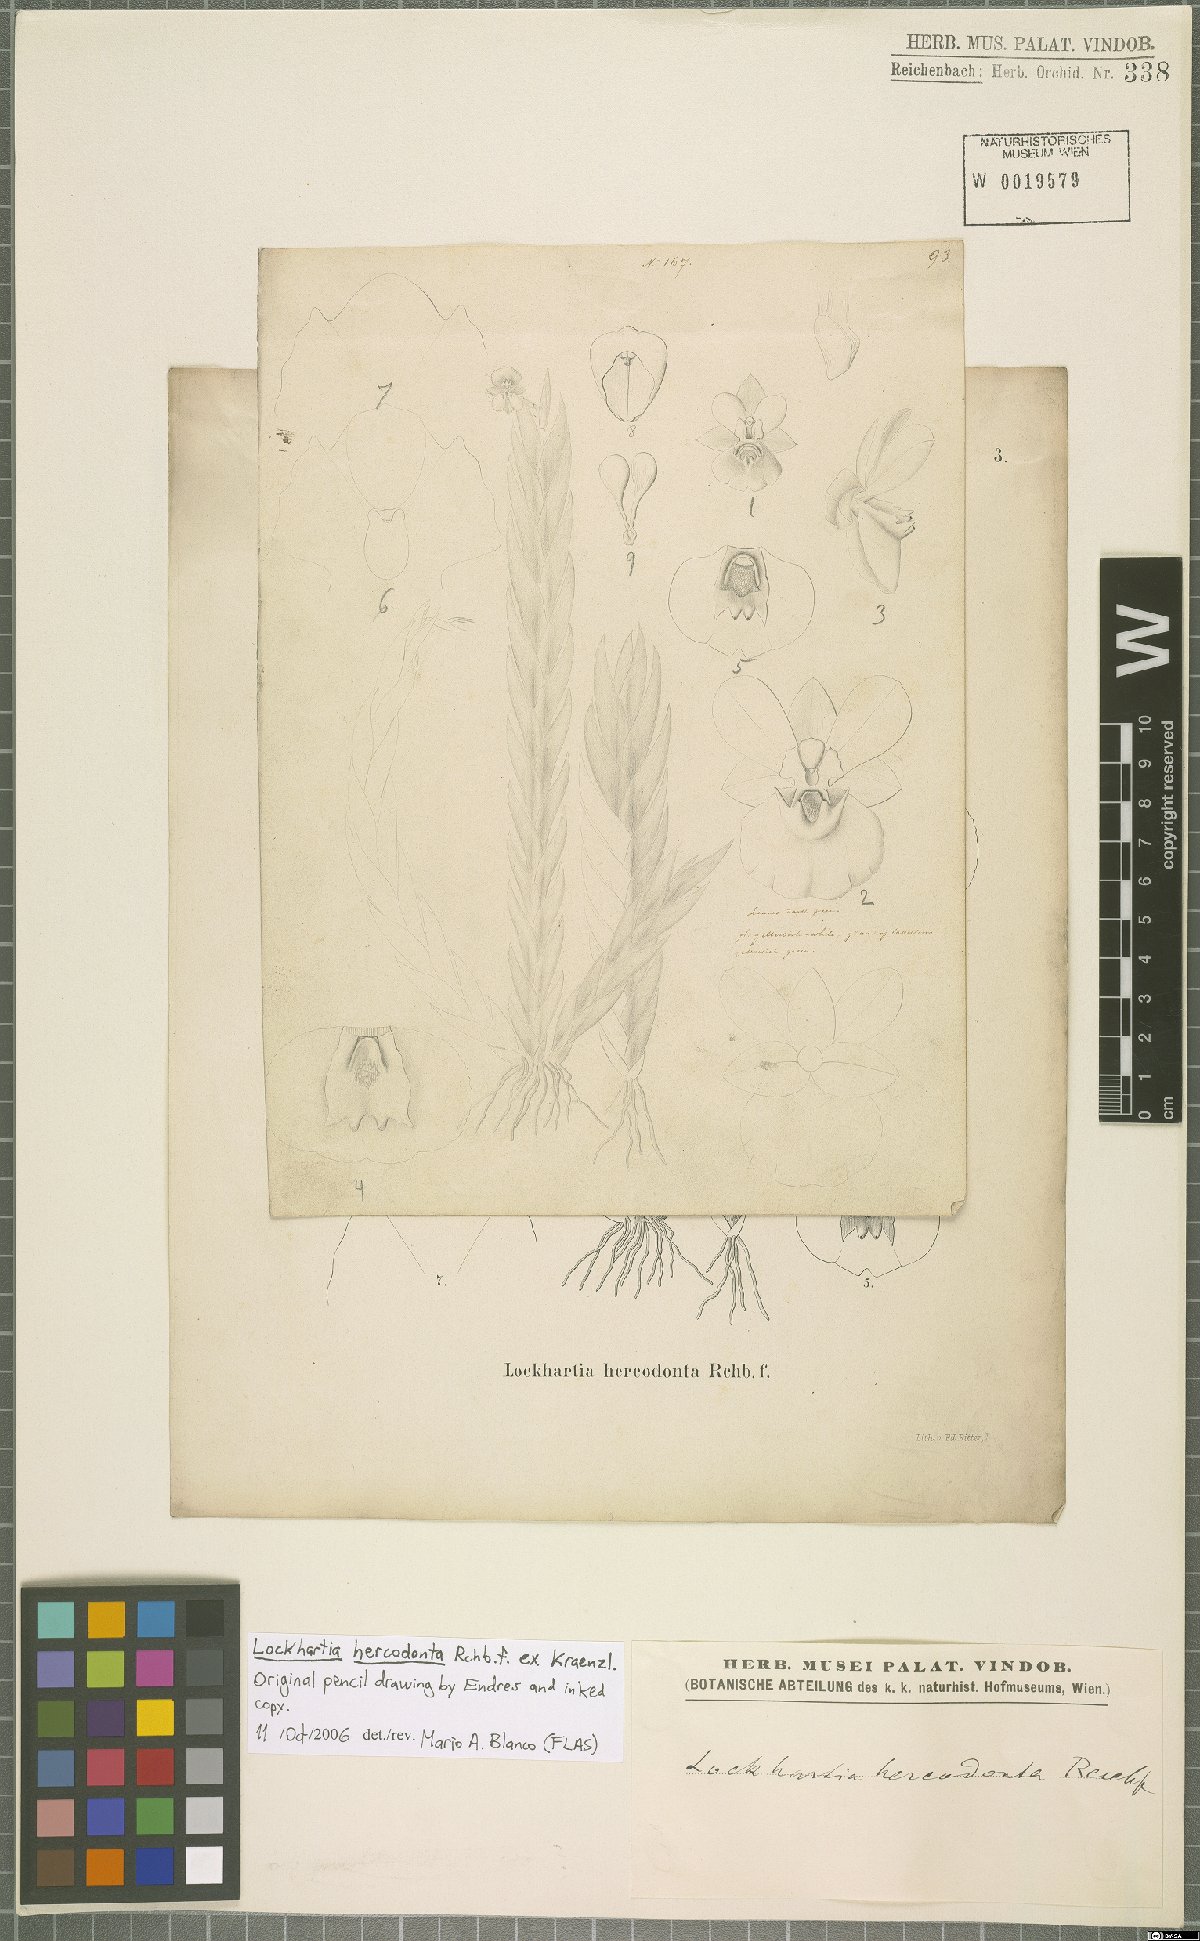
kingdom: Plantae
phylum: Tracheophyta
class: Liliopsida
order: Asparagales
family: Orchidaceae
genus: Lockhartia
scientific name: Lockhartia hercodonta
